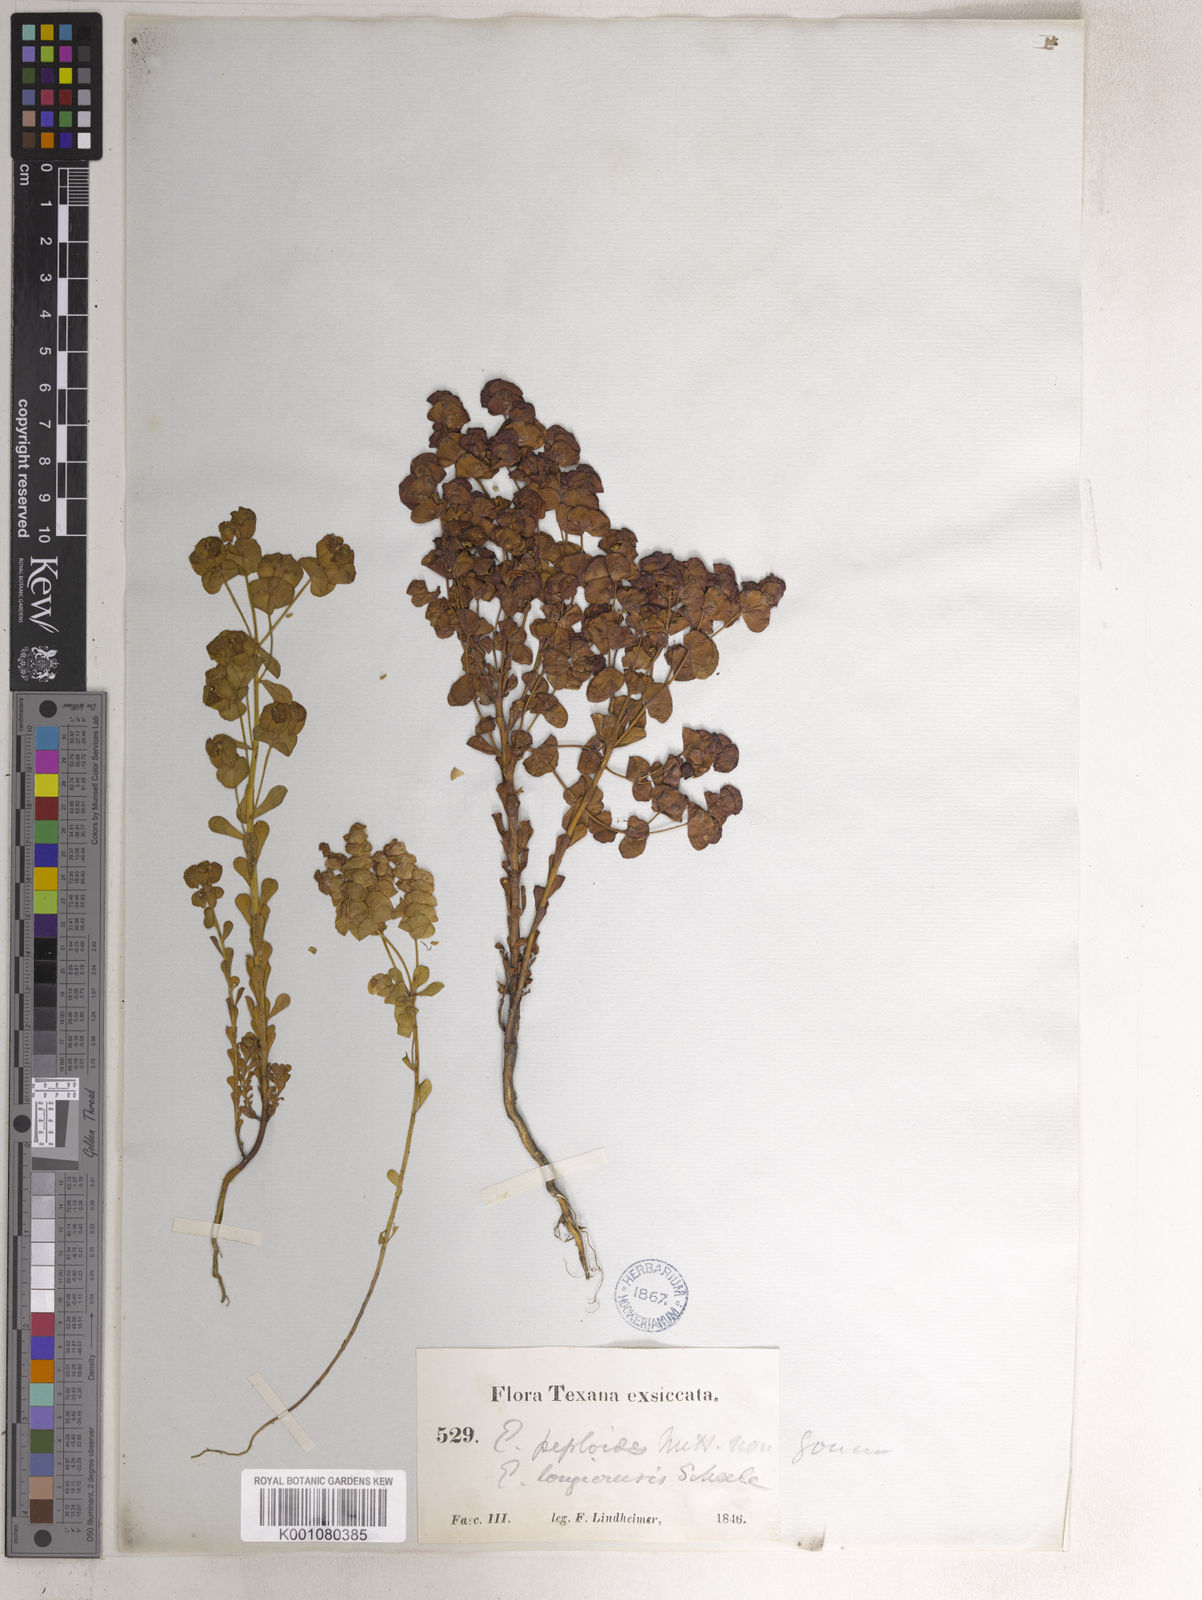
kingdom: Plantae
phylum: Tracheophyta
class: Magnoliopsida
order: Malpighiales
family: Euphorbiaceae
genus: Euphorbia
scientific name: Euphorbia longicruris
